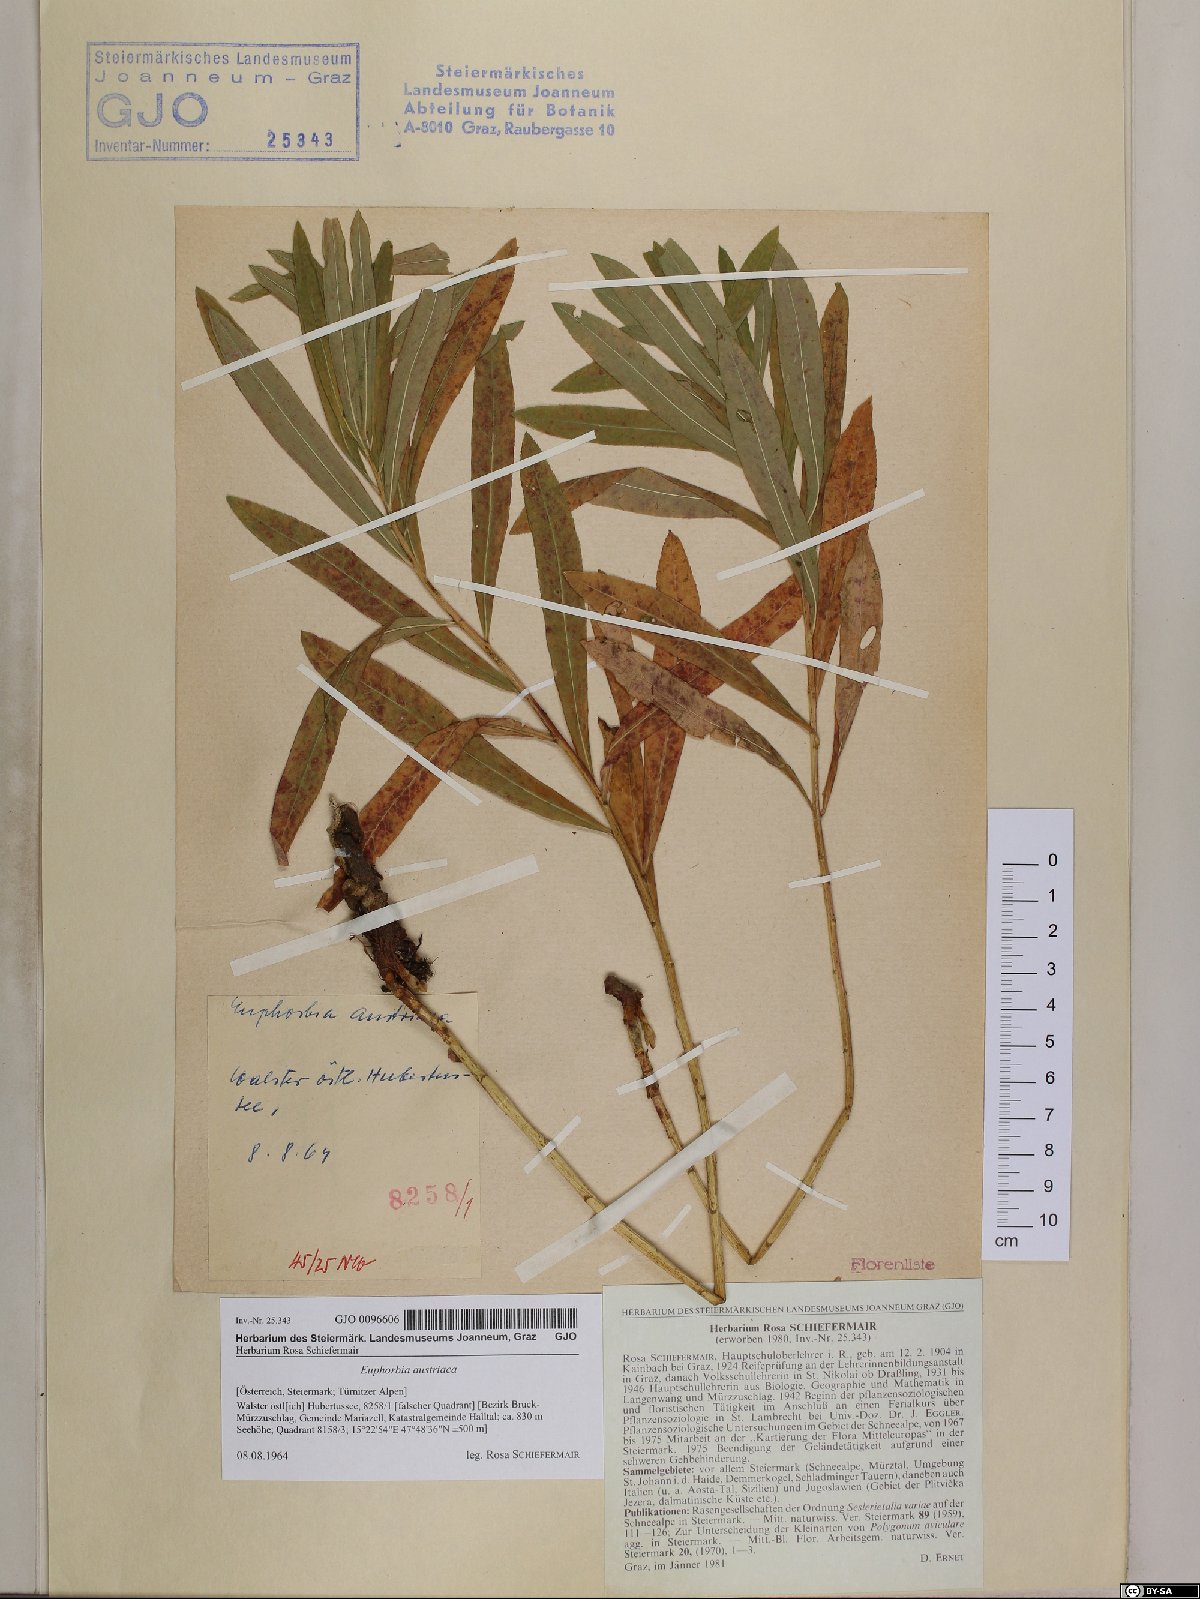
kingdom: Plantae
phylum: Tracheophyta
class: Magnoliopsida
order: Malpighiales
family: Euphorbiaceae
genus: Euphorbia
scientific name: Euphorbia austriaca
